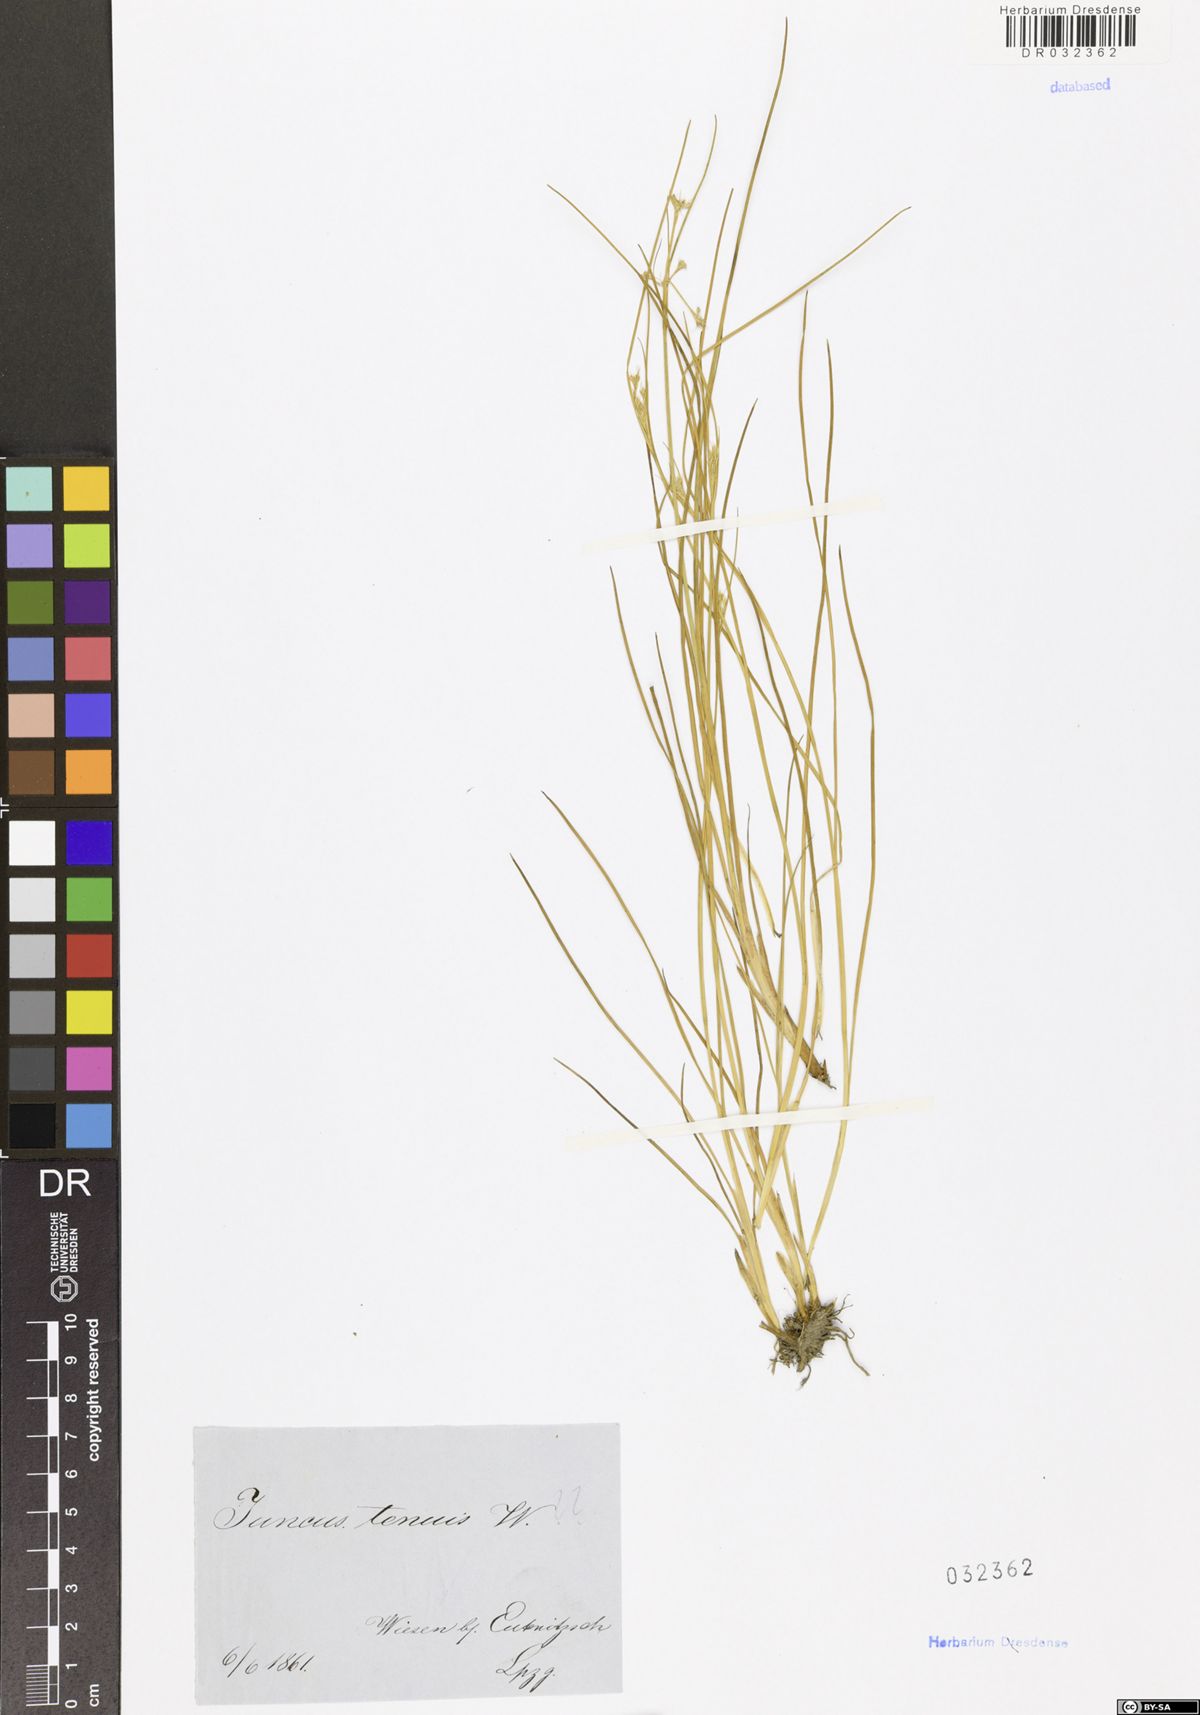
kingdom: Plantae
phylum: Tracheophyta
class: Liliopsida
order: Poales
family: Juncaceae
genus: Juncus
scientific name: Juncus tenuis
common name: Slender rush
